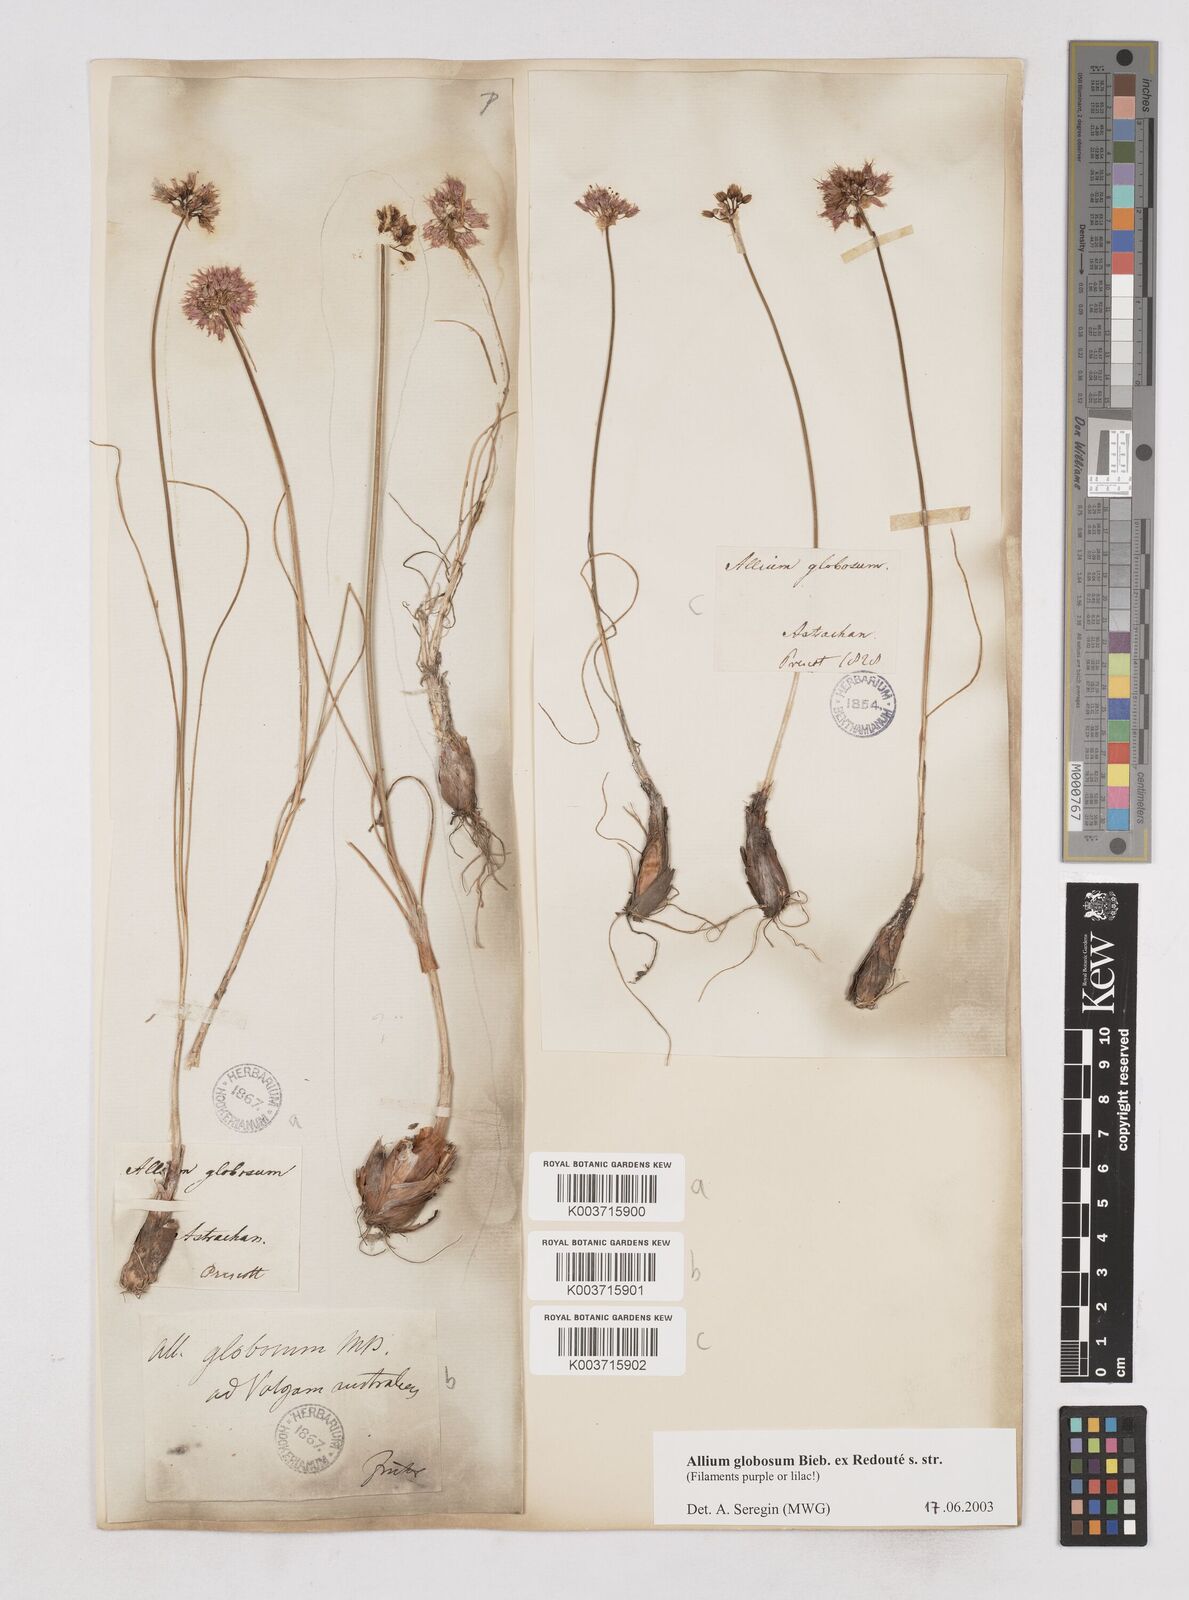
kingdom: Plantae
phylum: Tracheophyta
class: Liliopsida
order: Asparagales
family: Amaryllidaceae
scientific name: Amaryllidaceae
